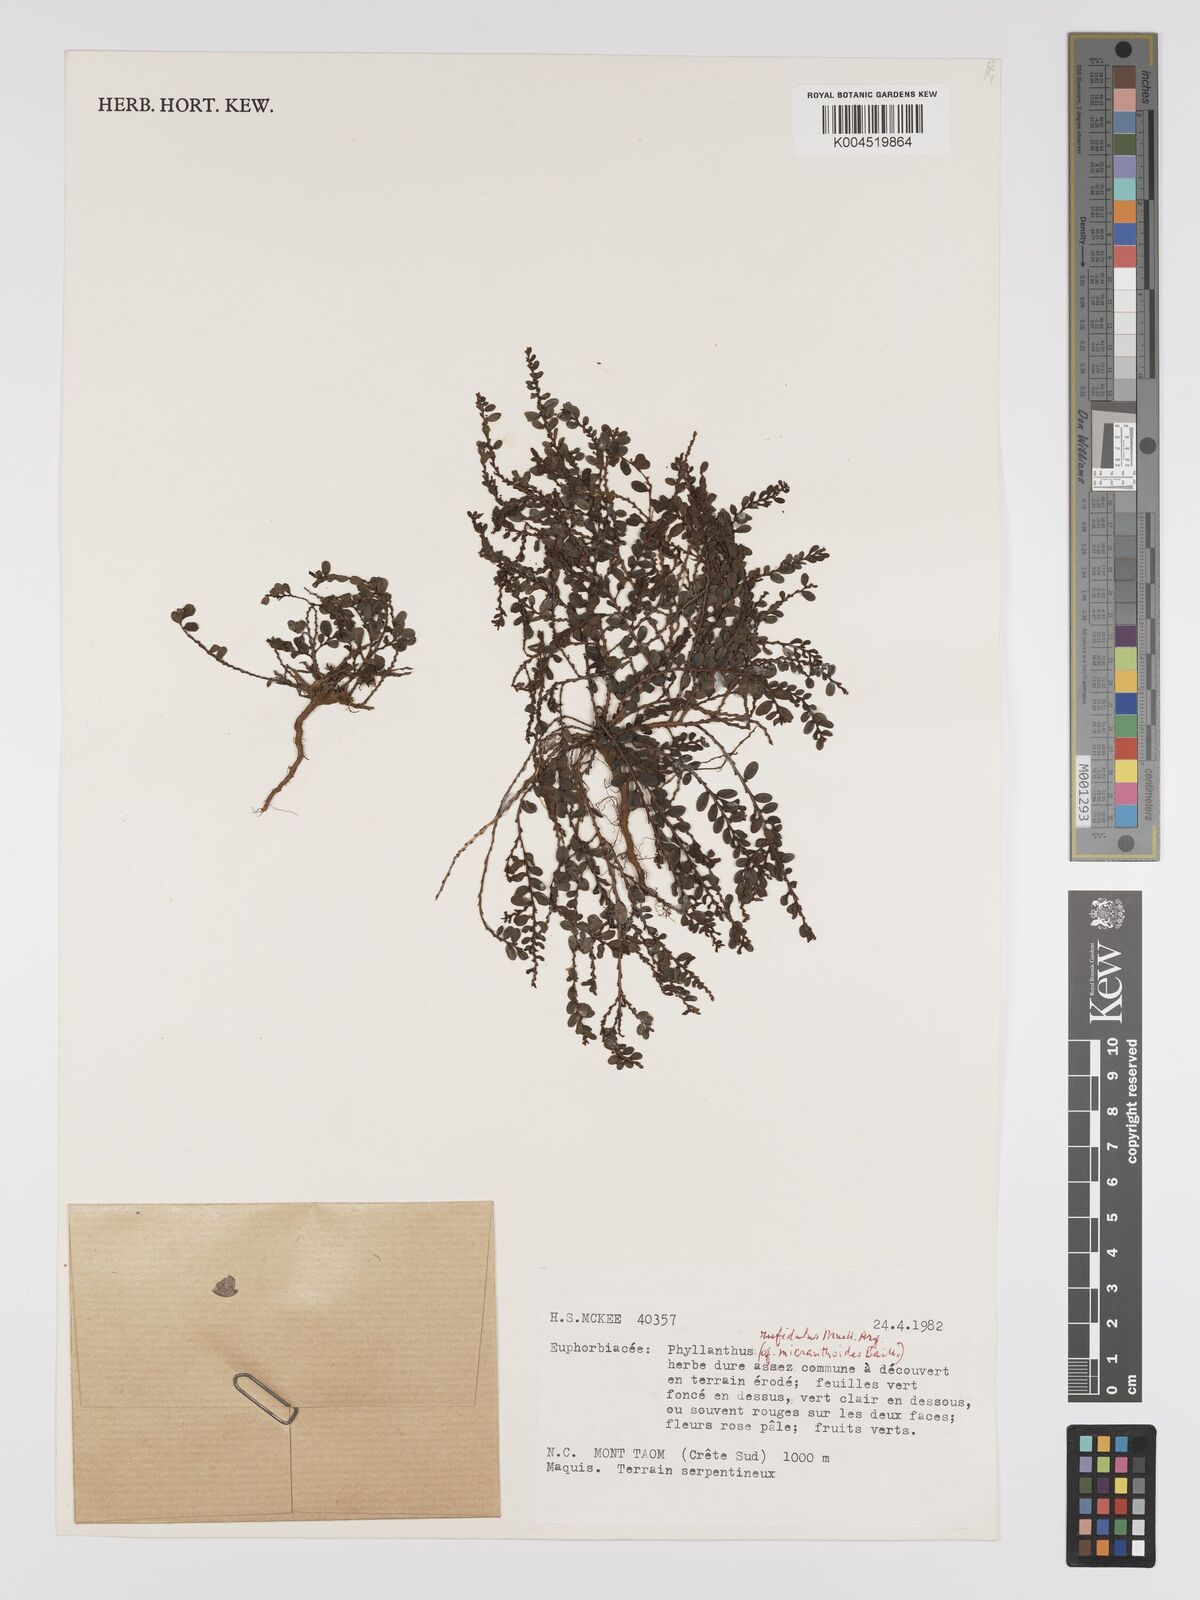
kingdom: Plantae
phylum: Tracheophyta
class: Magnoliopsida
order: Malpighiales
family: Phyllanthaceae
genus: Phyllanthus
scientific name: Phyllanthus chrysanthus
